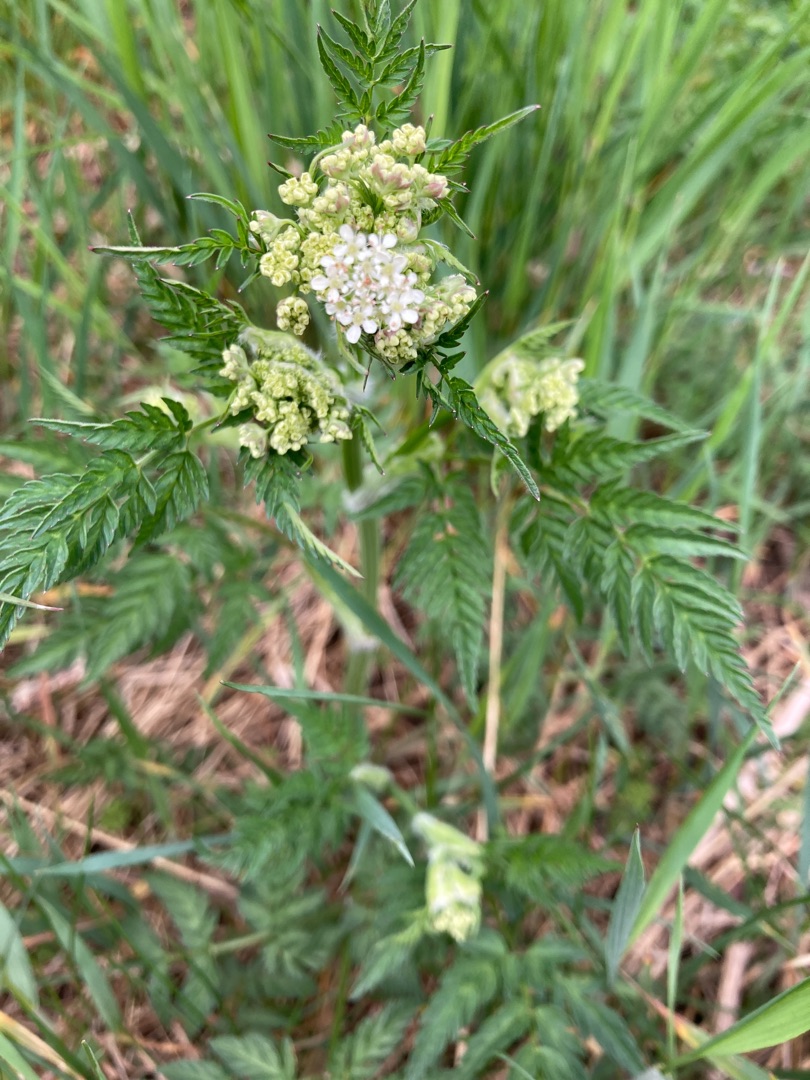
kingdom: Plantae
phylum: Tracheophyta
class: Magnoliopsida
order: Apiales
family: Apiaceae
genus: Anthriscus
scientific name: Anthriscus sylvestris
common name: Vild kørvel
